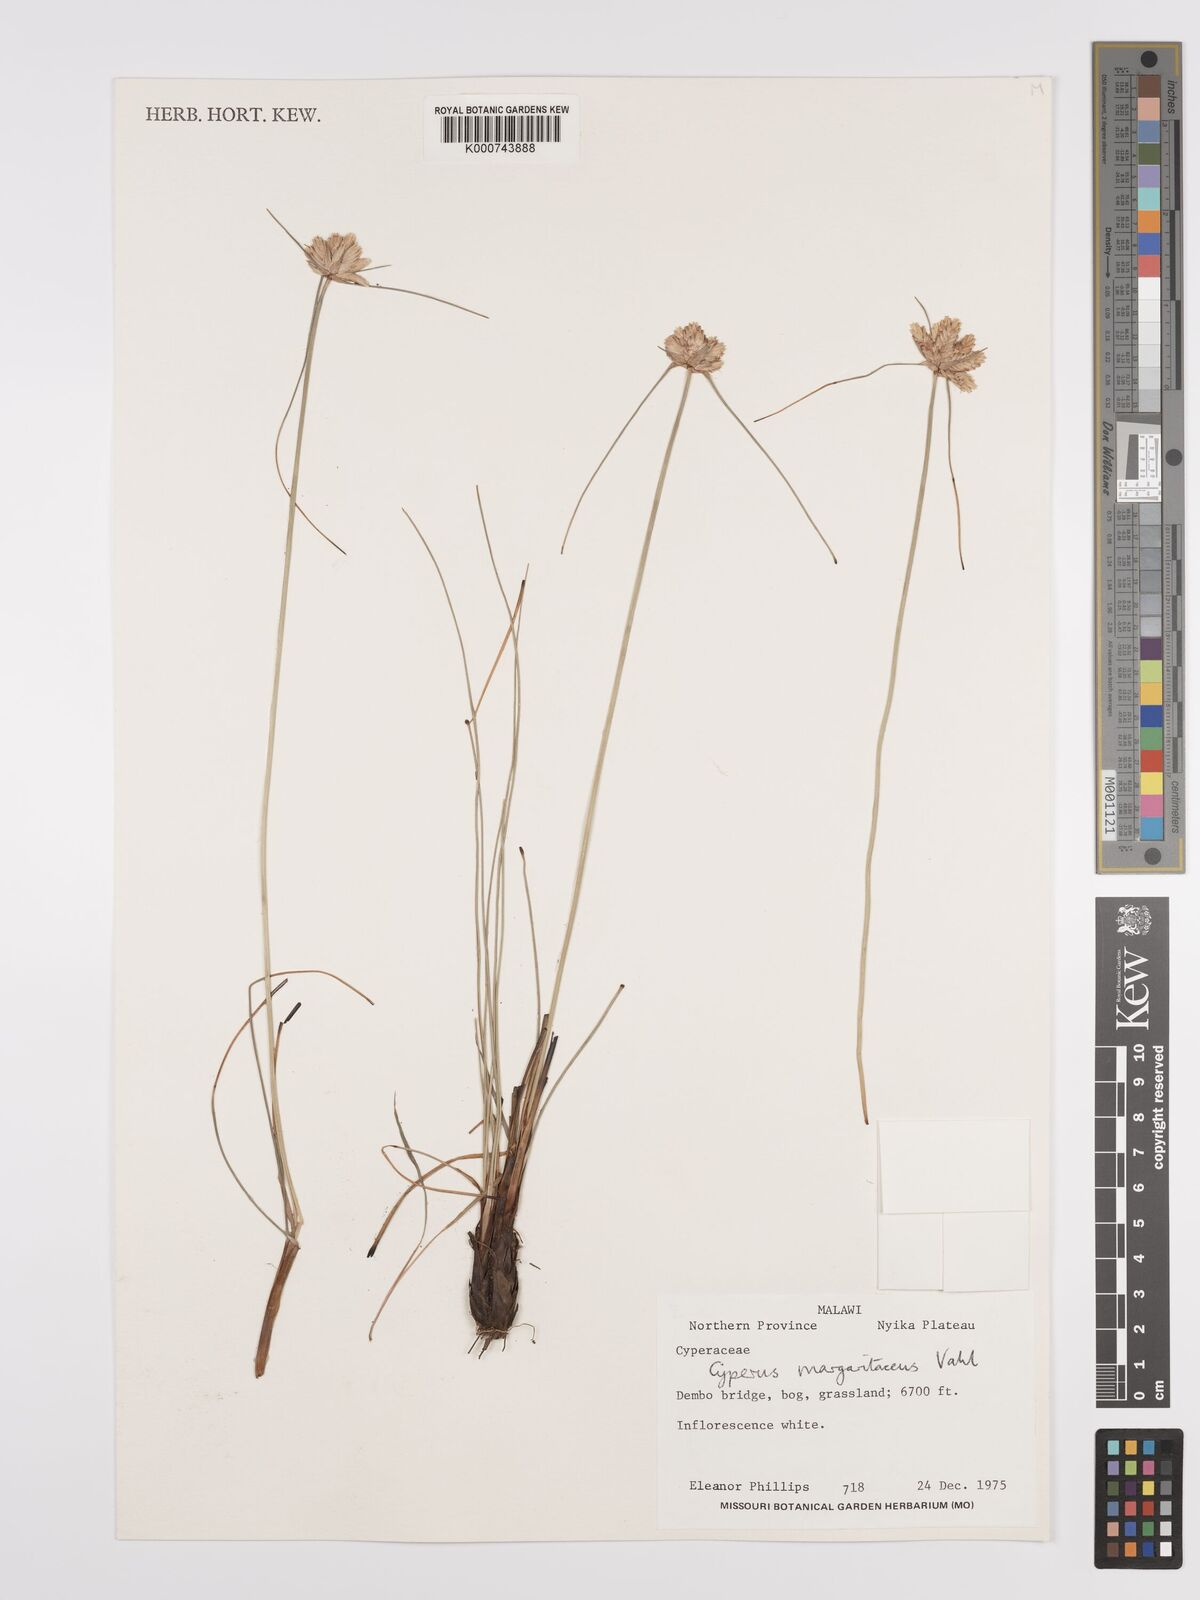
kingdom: Plantae
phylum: Tracheophyta
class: Liliopsida
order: Poales
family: Cyperaceae
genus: Cyperus
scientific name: Cyperus margaritaceus
